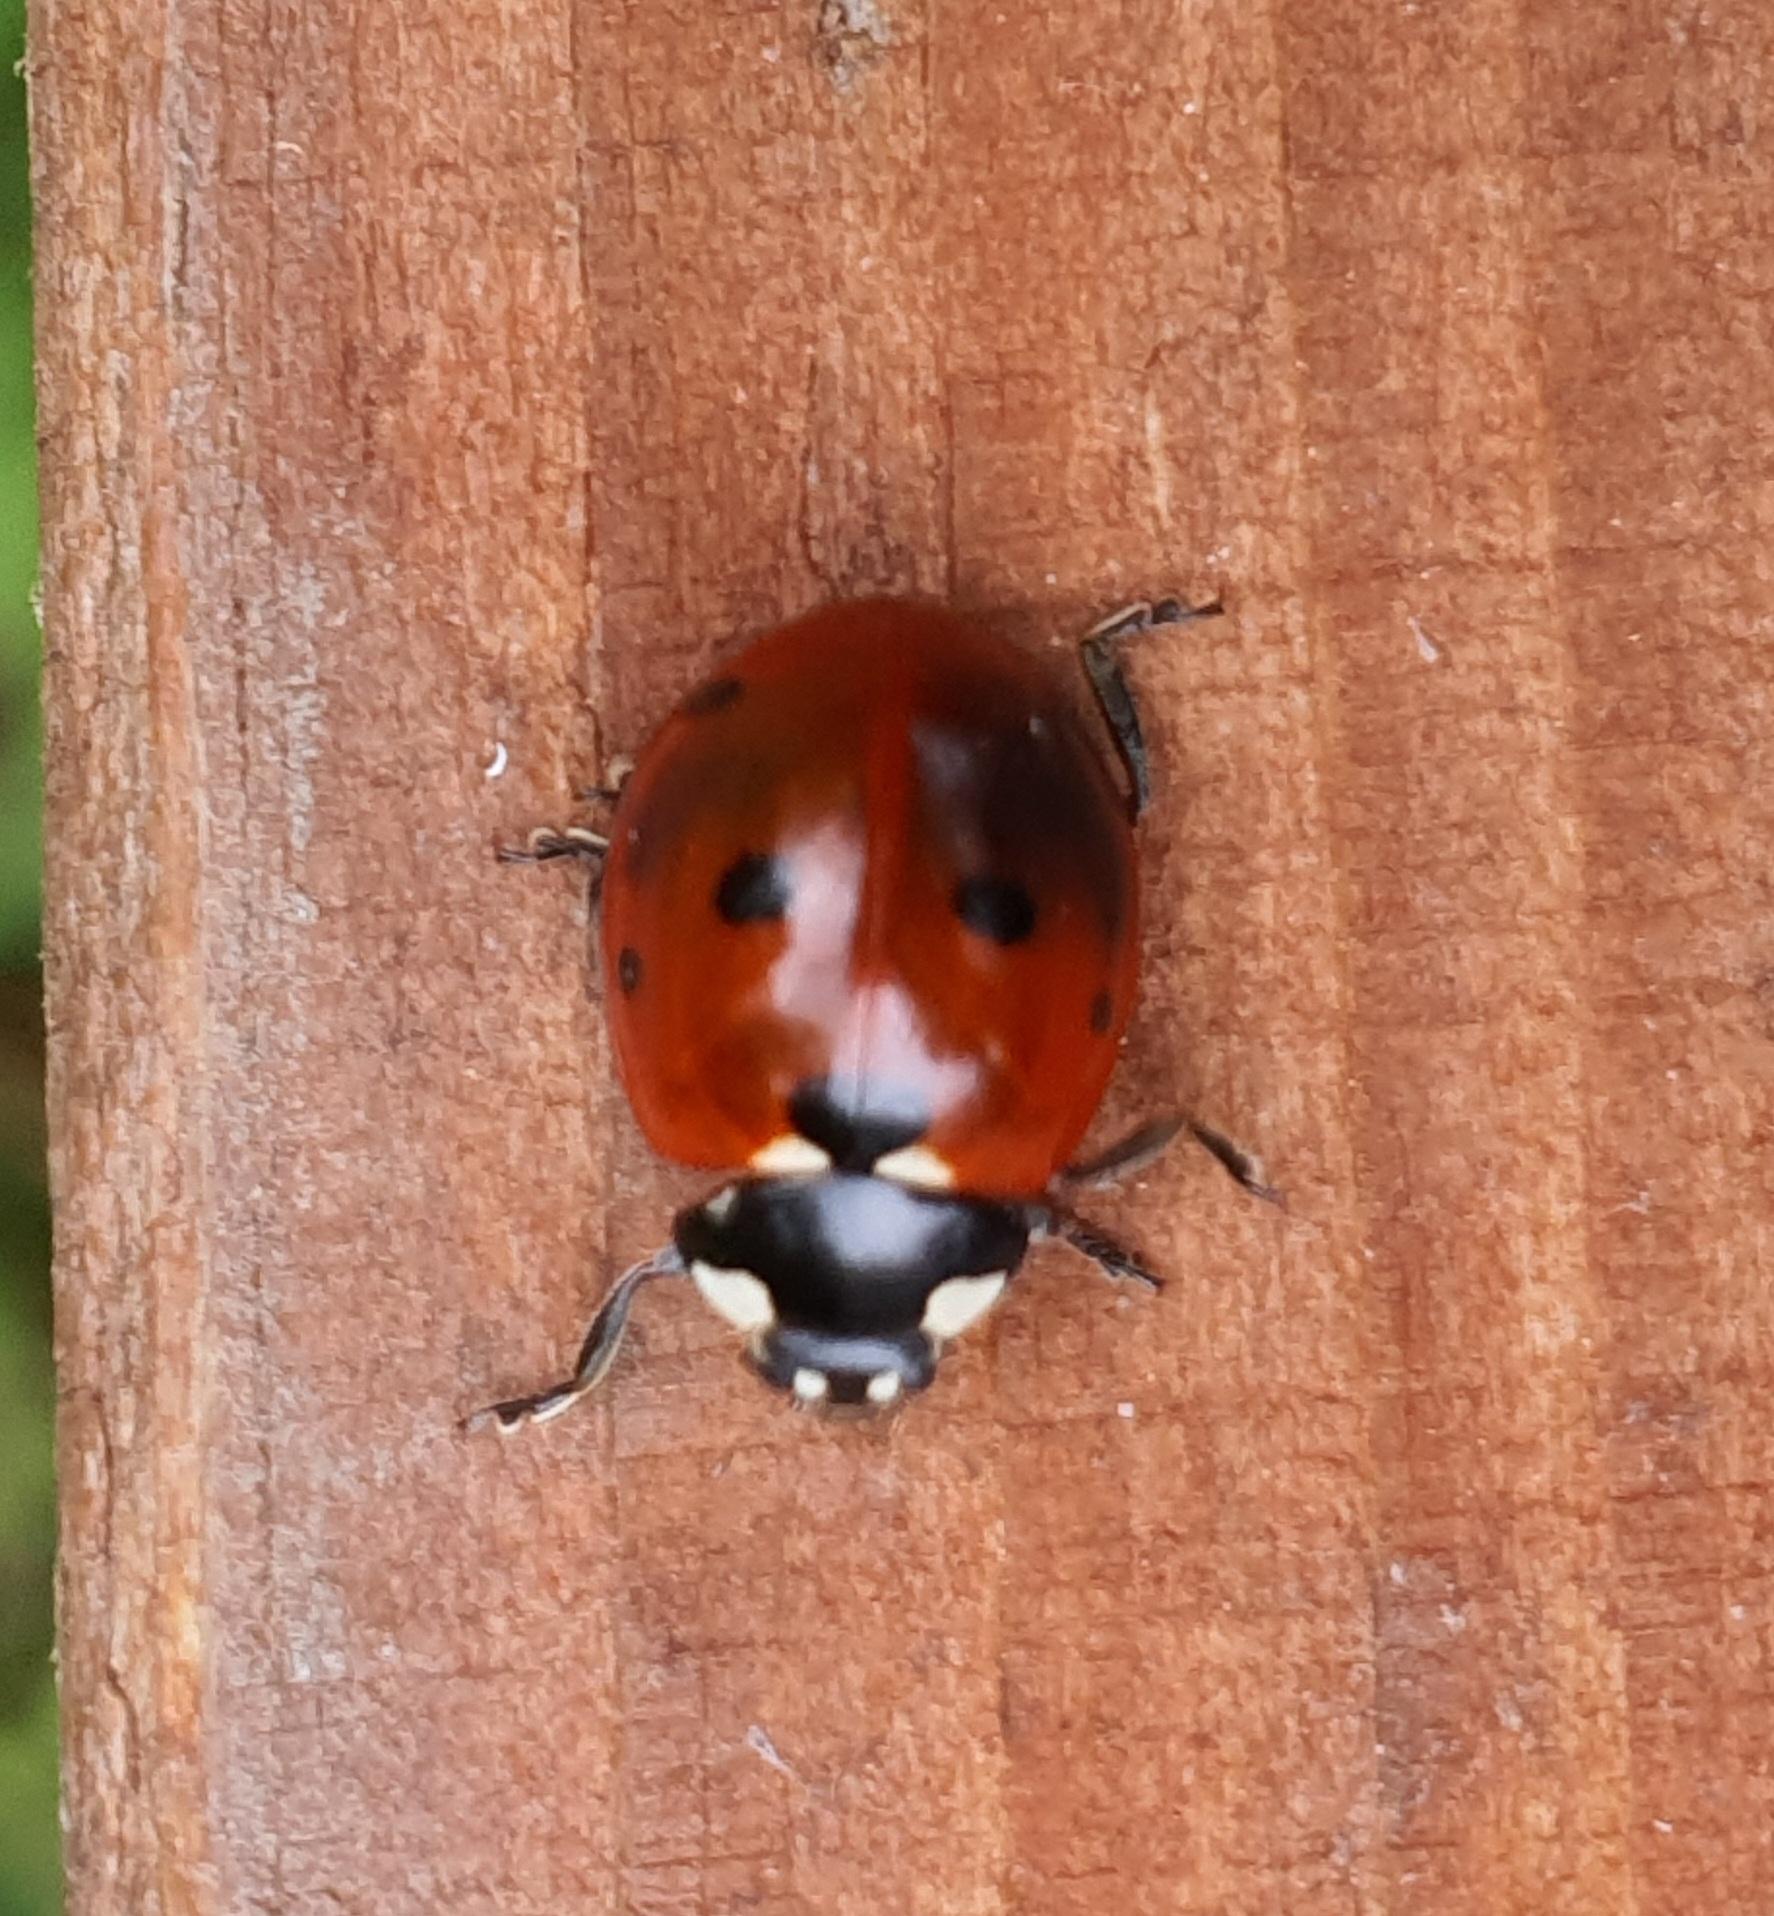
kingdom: Animalia
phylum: Arthropoda
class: Insecta
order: Coleoptera
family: Coccinellidae
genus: Coccinella
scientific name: Coccinella septempunctata
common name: Syvplettet mariehøne
